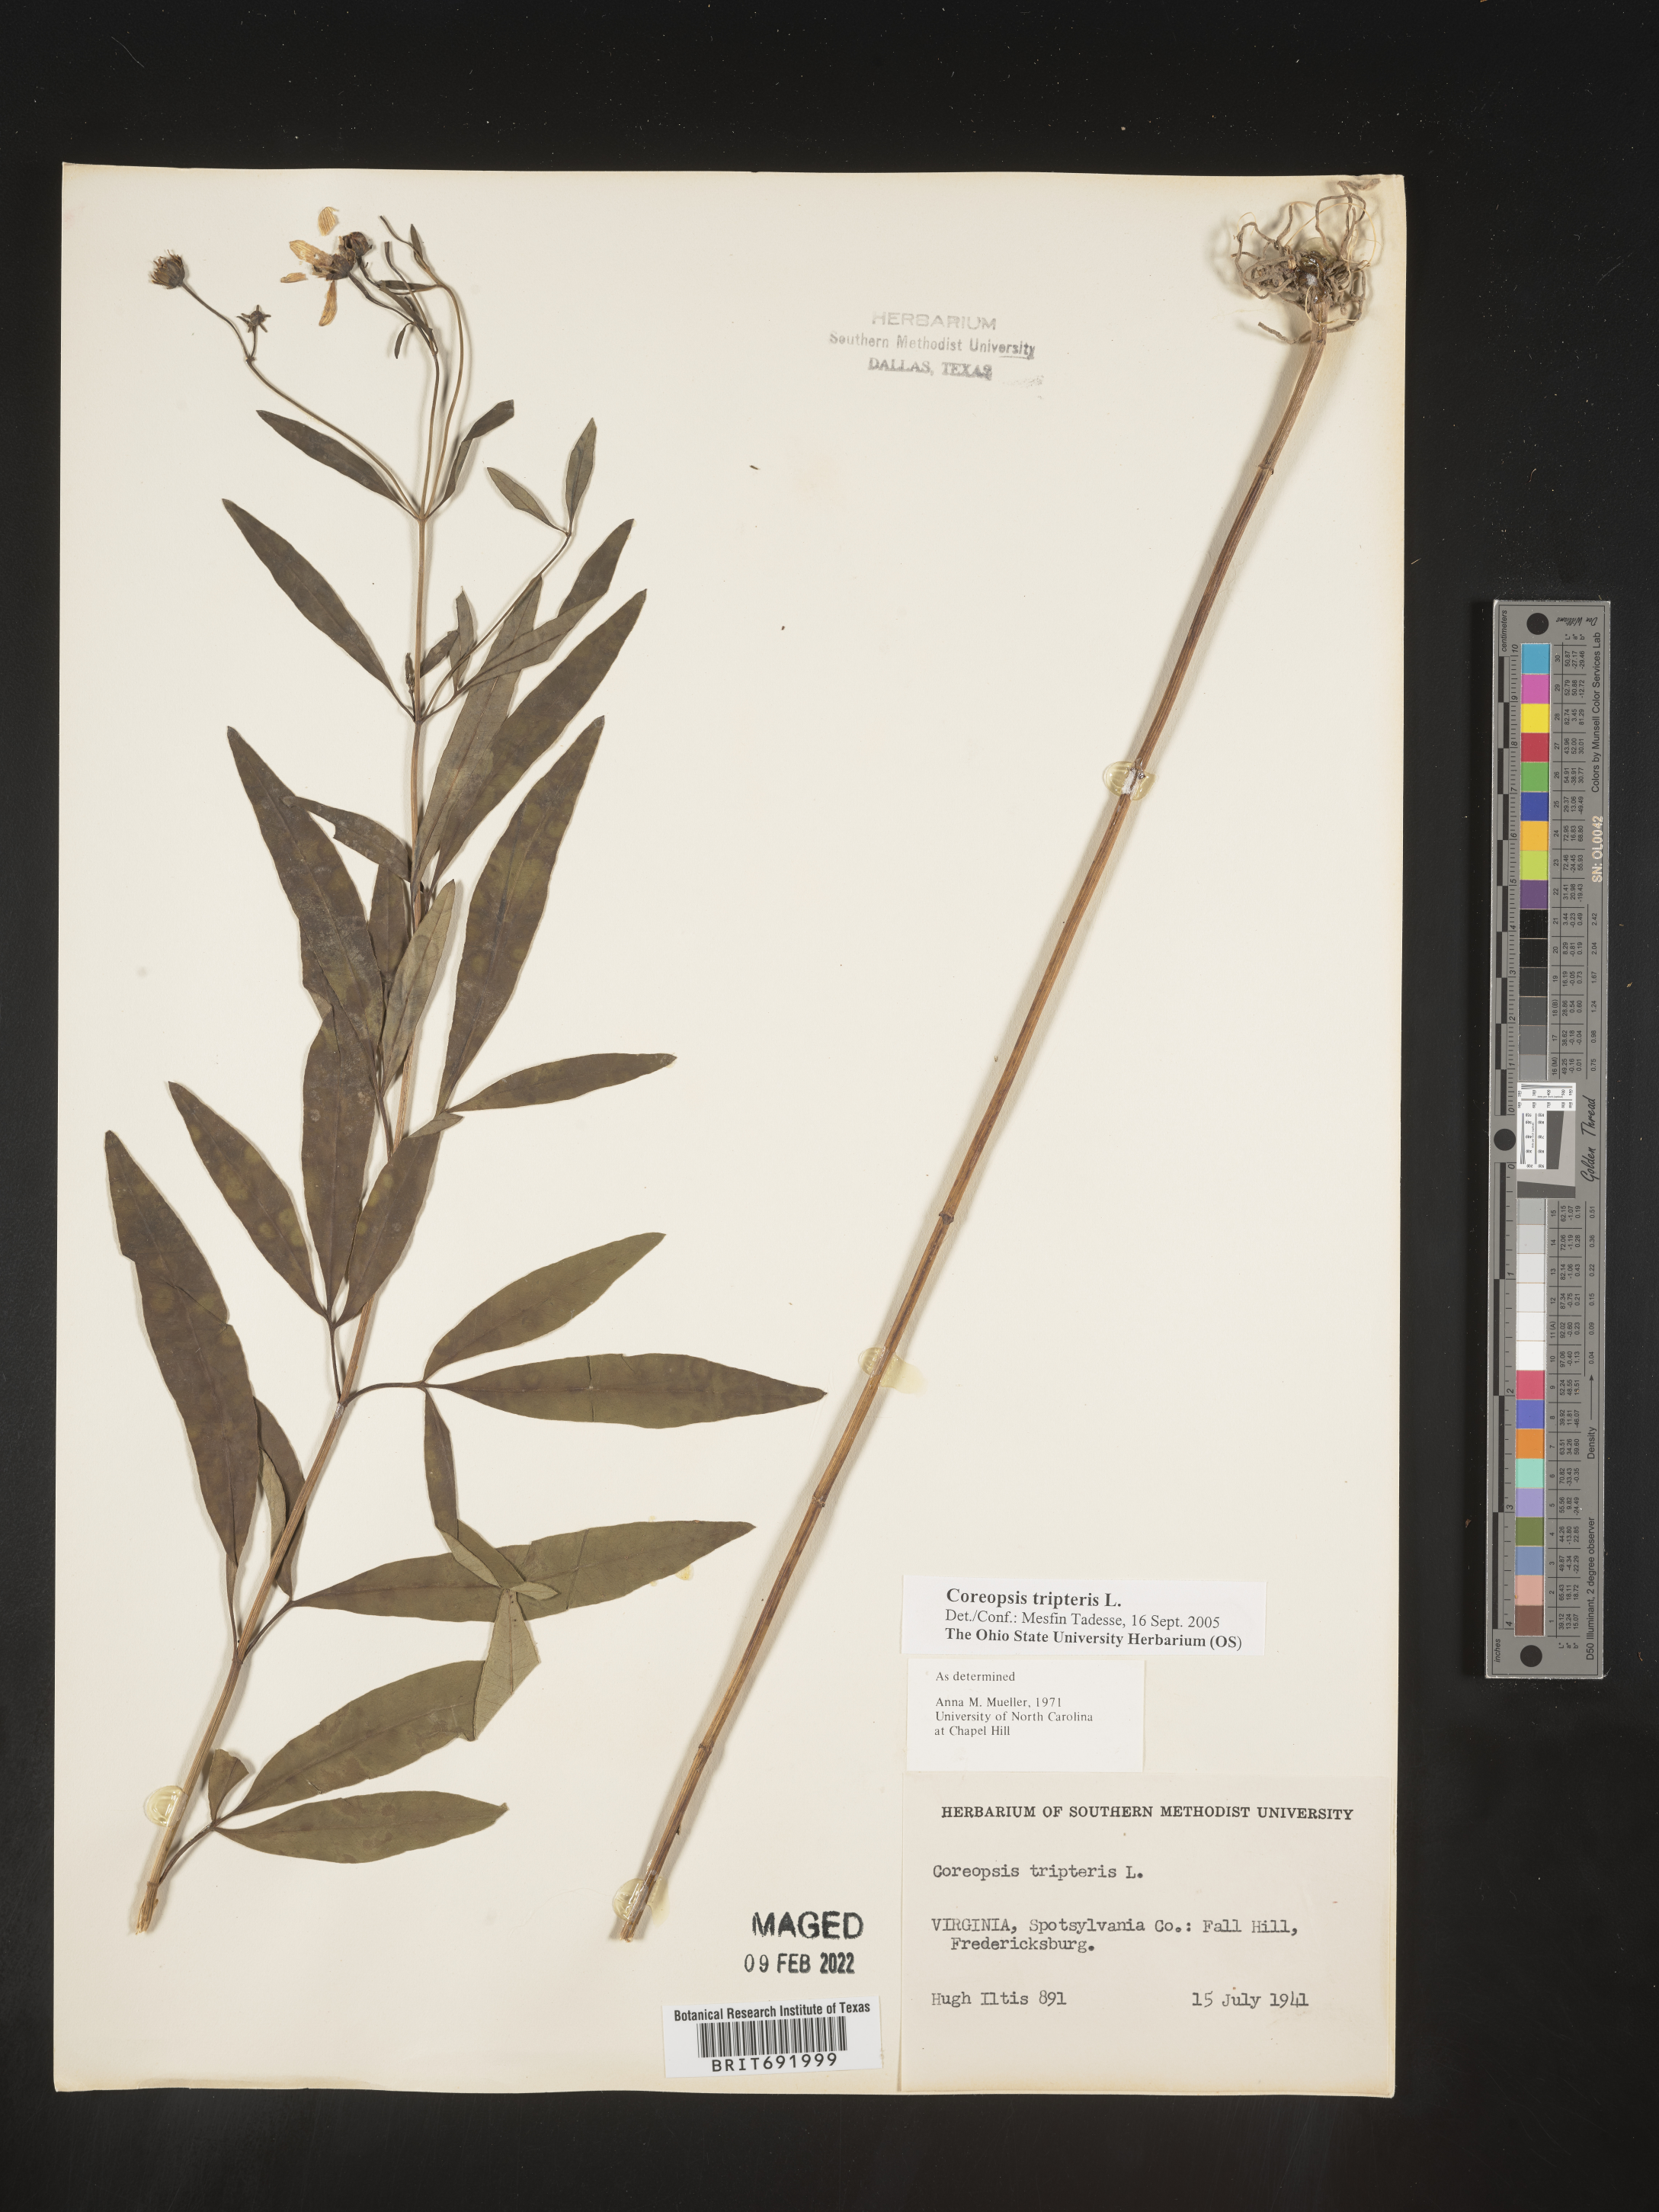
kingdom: Plantae
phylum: Tracheophyta
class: Magnoliopsida
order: Asterales
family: Asteraceae
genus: Coreopsis
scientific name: Coreopsis tripteris
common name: Tall coreopsis
